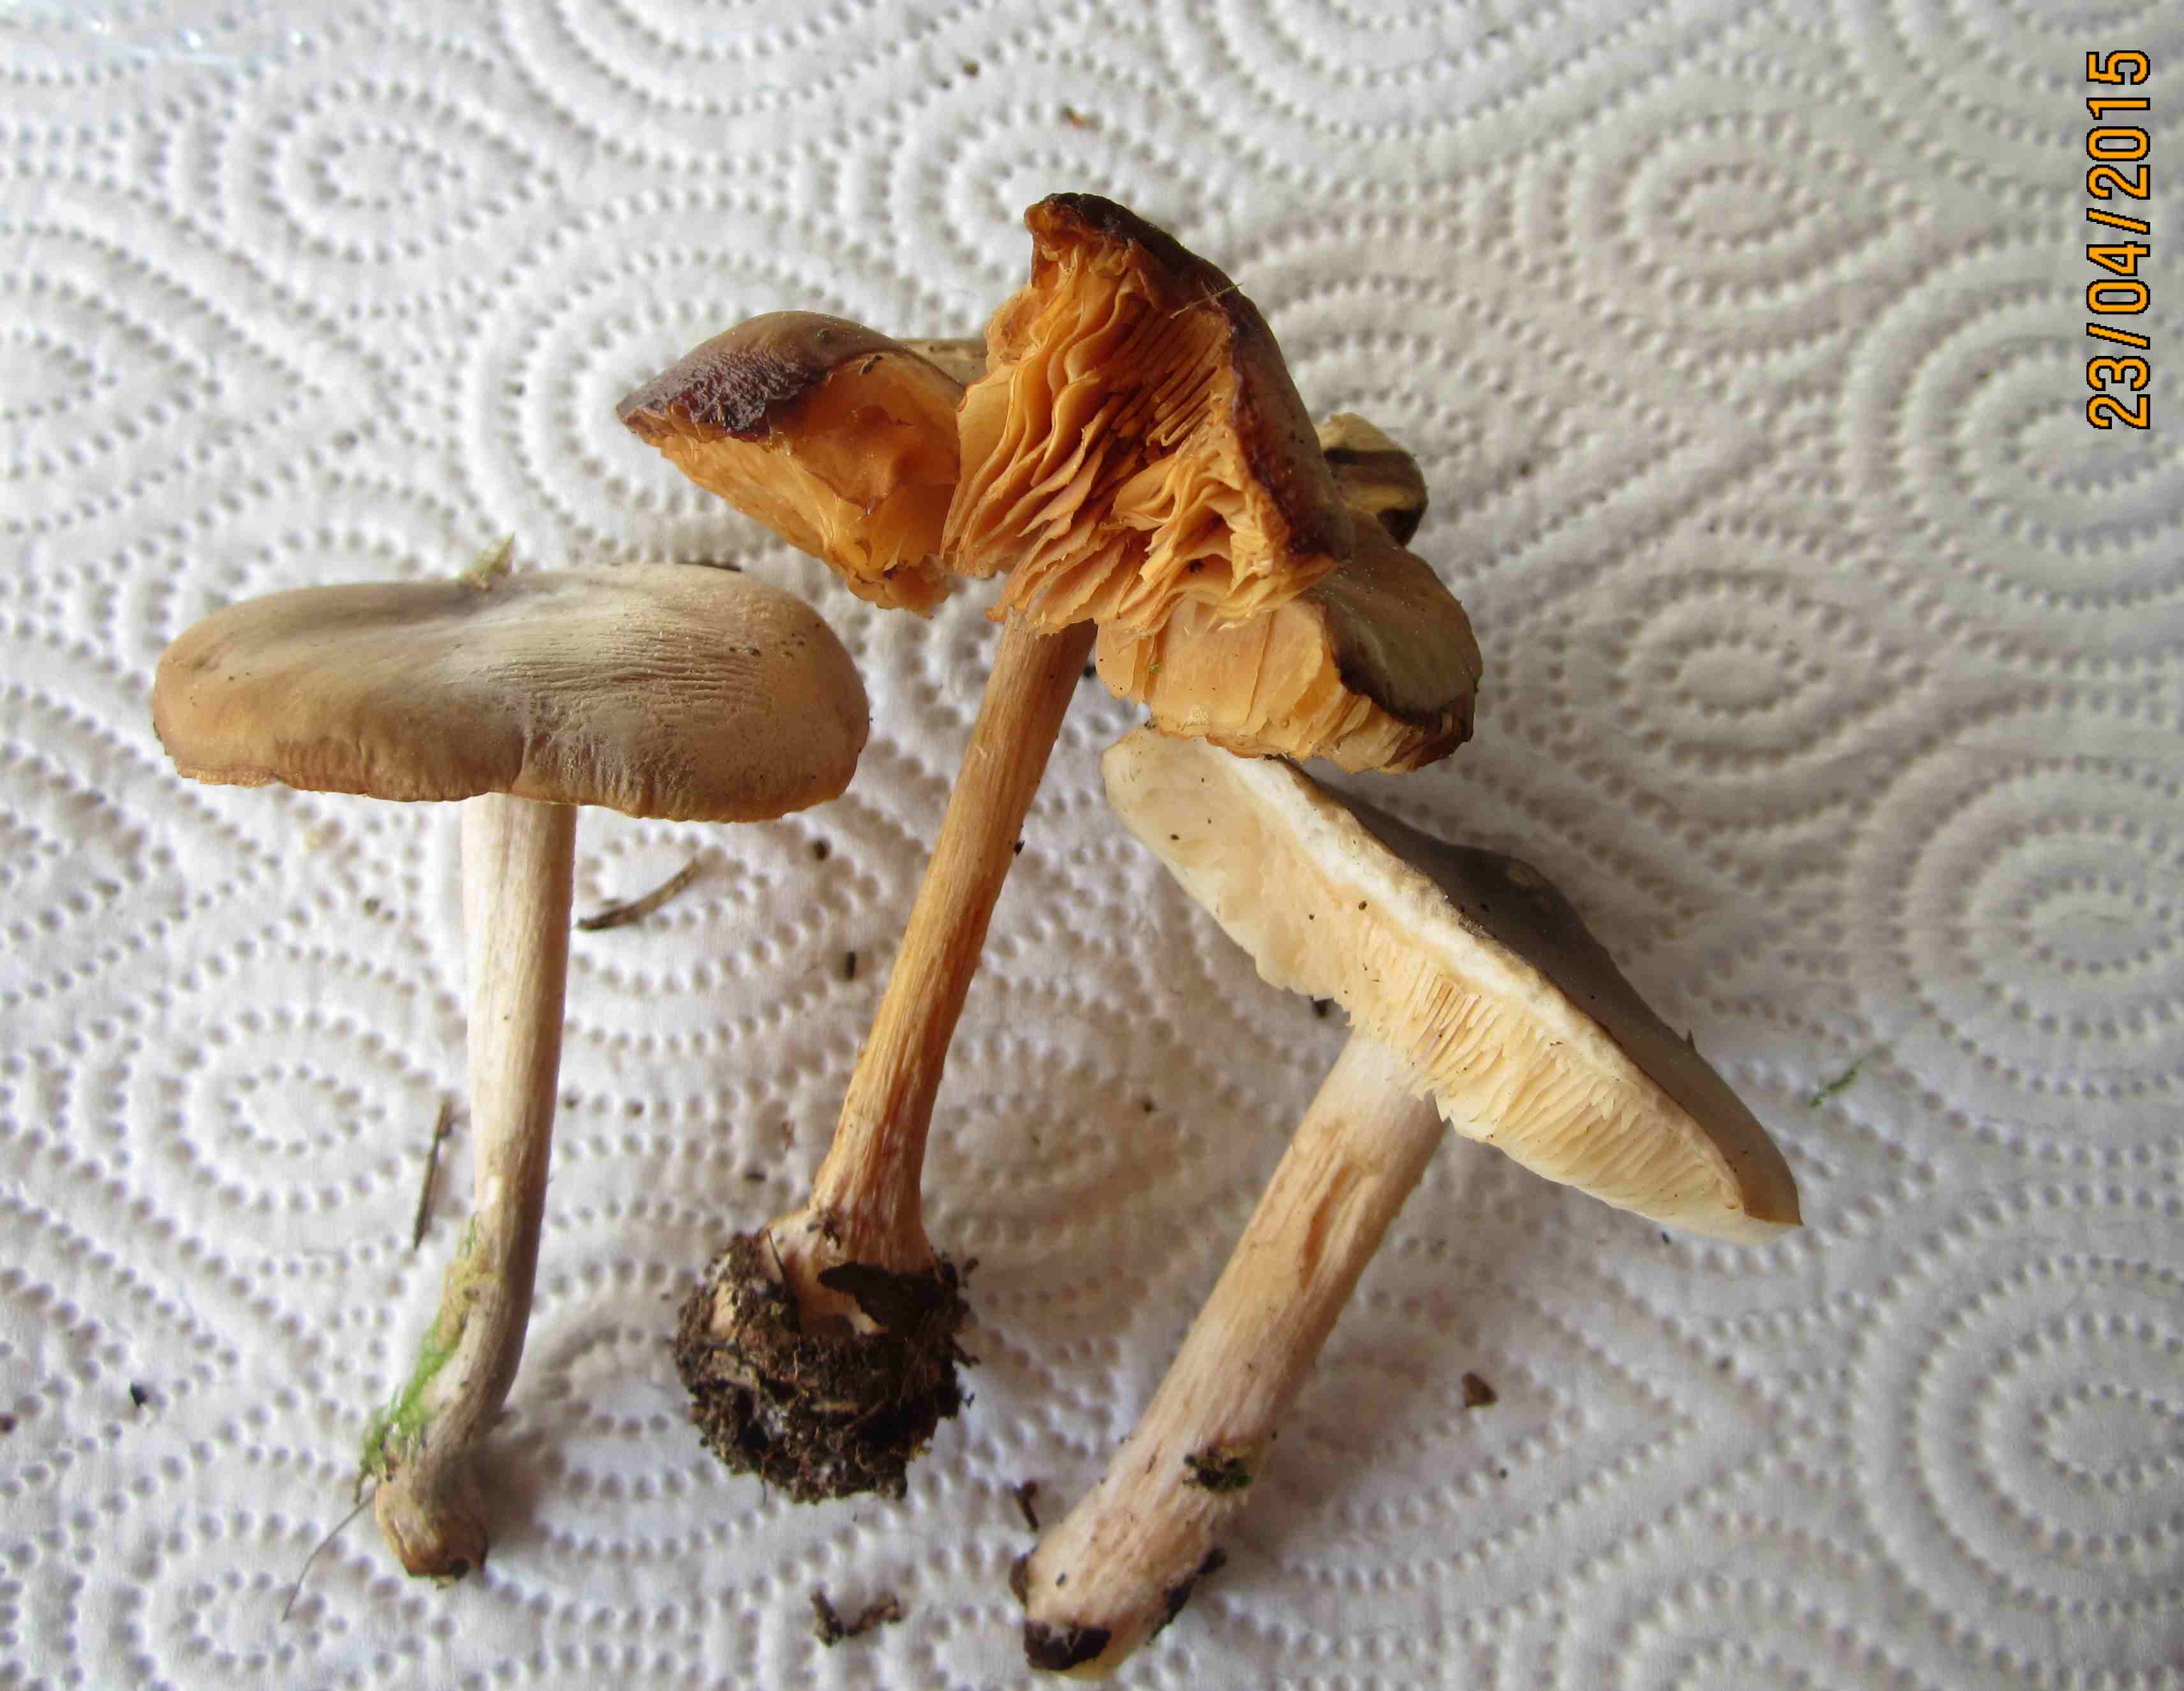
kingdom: Fungi
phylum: Basidiomycota
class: Agaricomycetes
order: Agaricales
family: Tricholomataceae
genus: Melanoleuca
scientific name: Melanoleuca cognata
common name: gyldengrå munkehat
